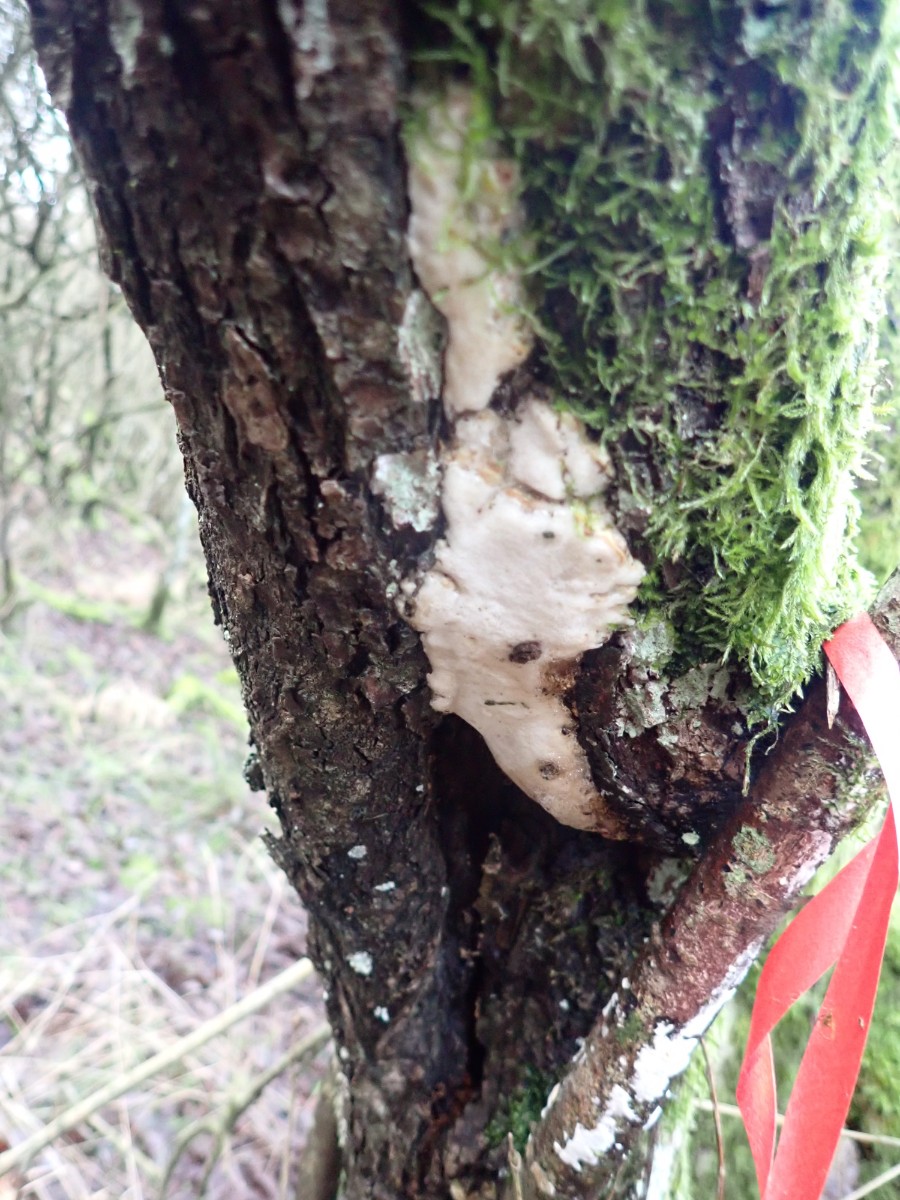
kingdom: Fungi
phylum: Basidiomycota
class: Agaricomycetes
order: Hymenochaetales
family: Oxyporaceae
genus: Oxyporus
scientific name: Oxyporus populinus
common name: sammenvokset trylleporesvamp
